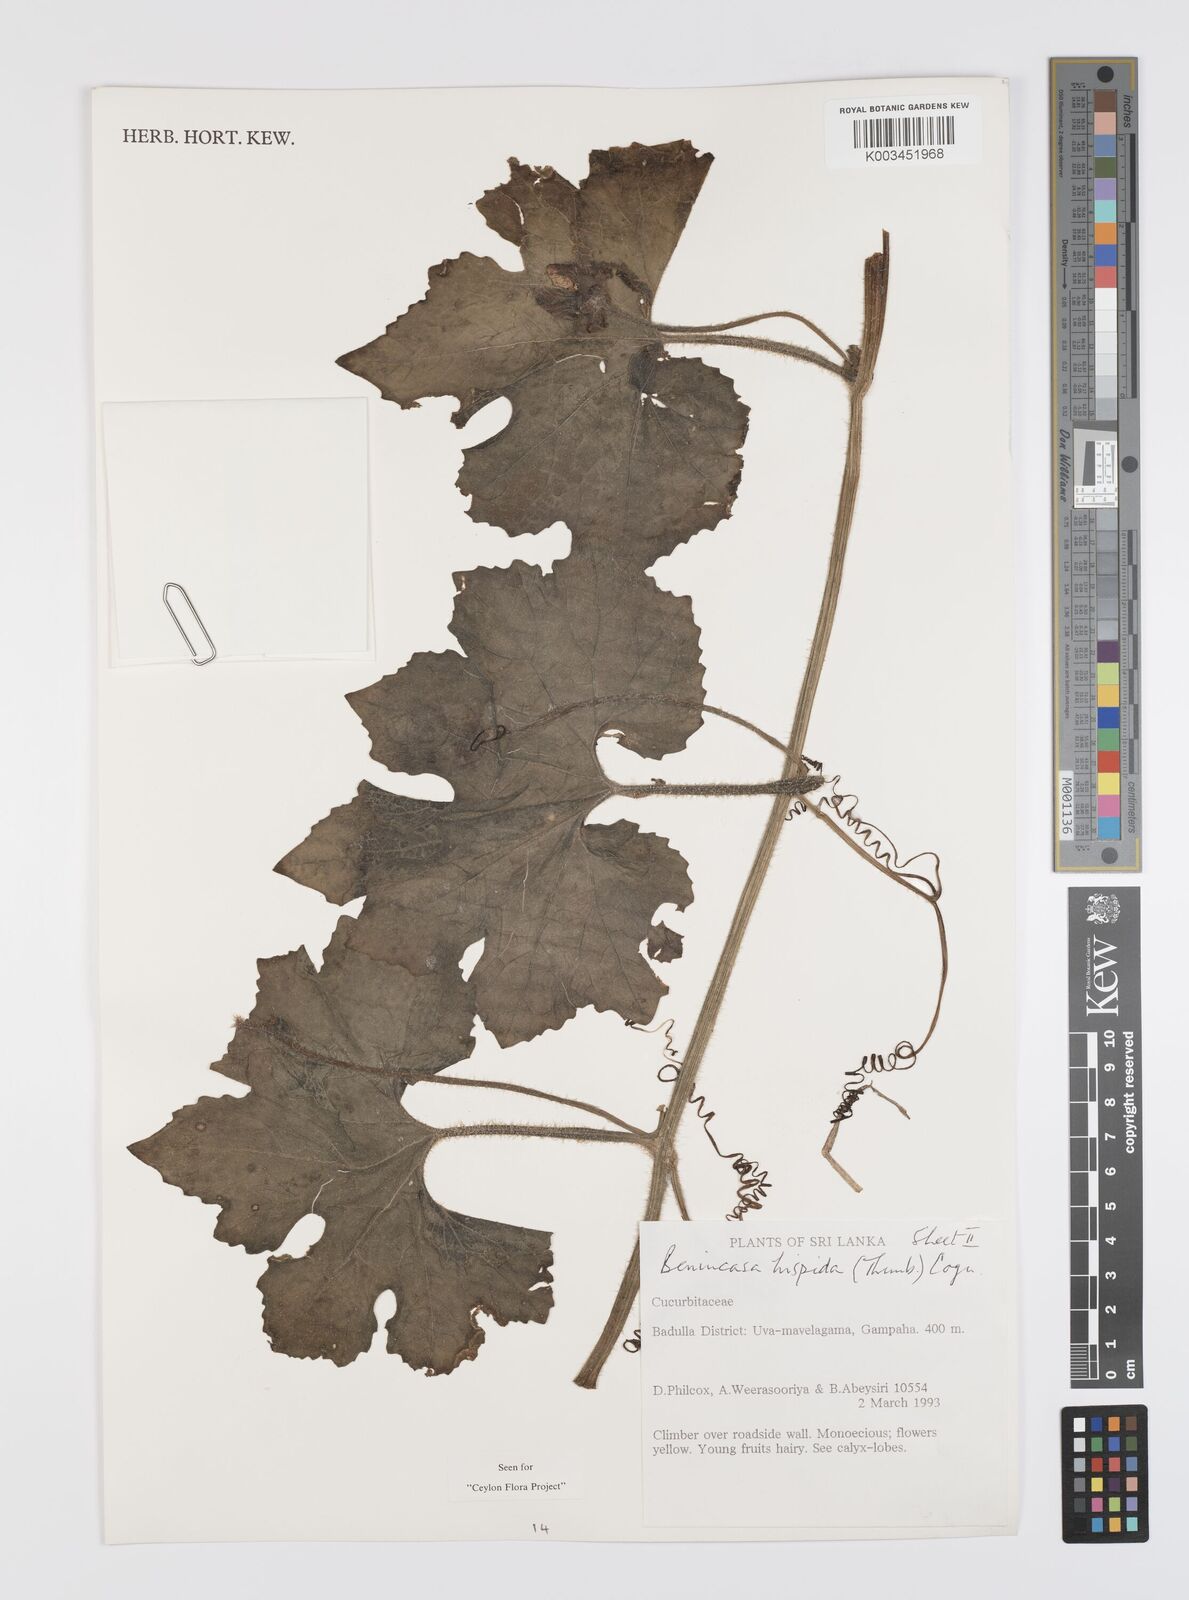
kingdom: Plantae
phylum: Tracheophyta
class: Magnoliopsida
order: Cucurbitales
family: Cucurbitaceae
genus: Benincasa
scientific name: Benincasa hispida
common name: Chinese-watermelon
